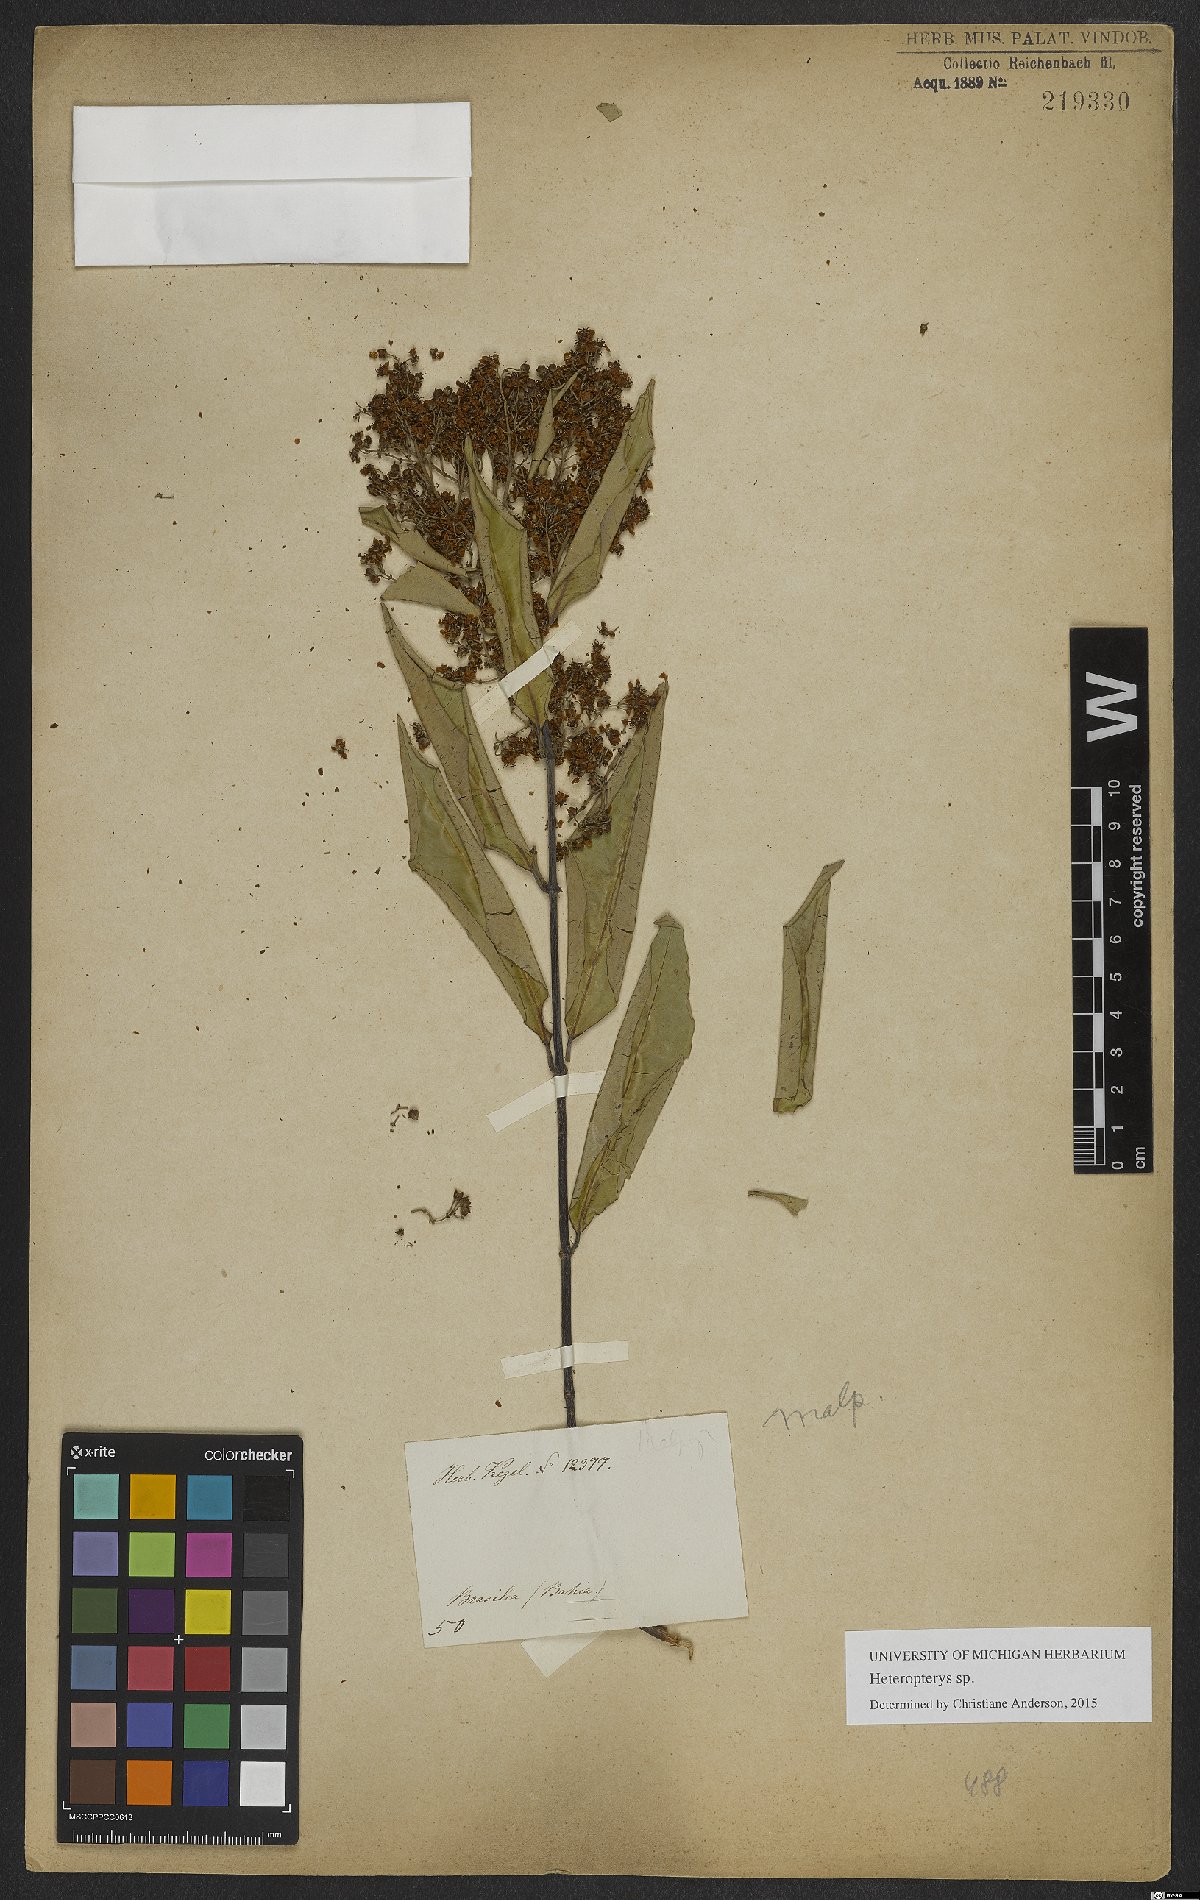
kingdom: Plantae
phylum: Tracheophyta
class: Magnoliopsida
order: Malpighiales
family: Malpighiaceae
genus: Heteropterys
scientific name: Heteropterys
